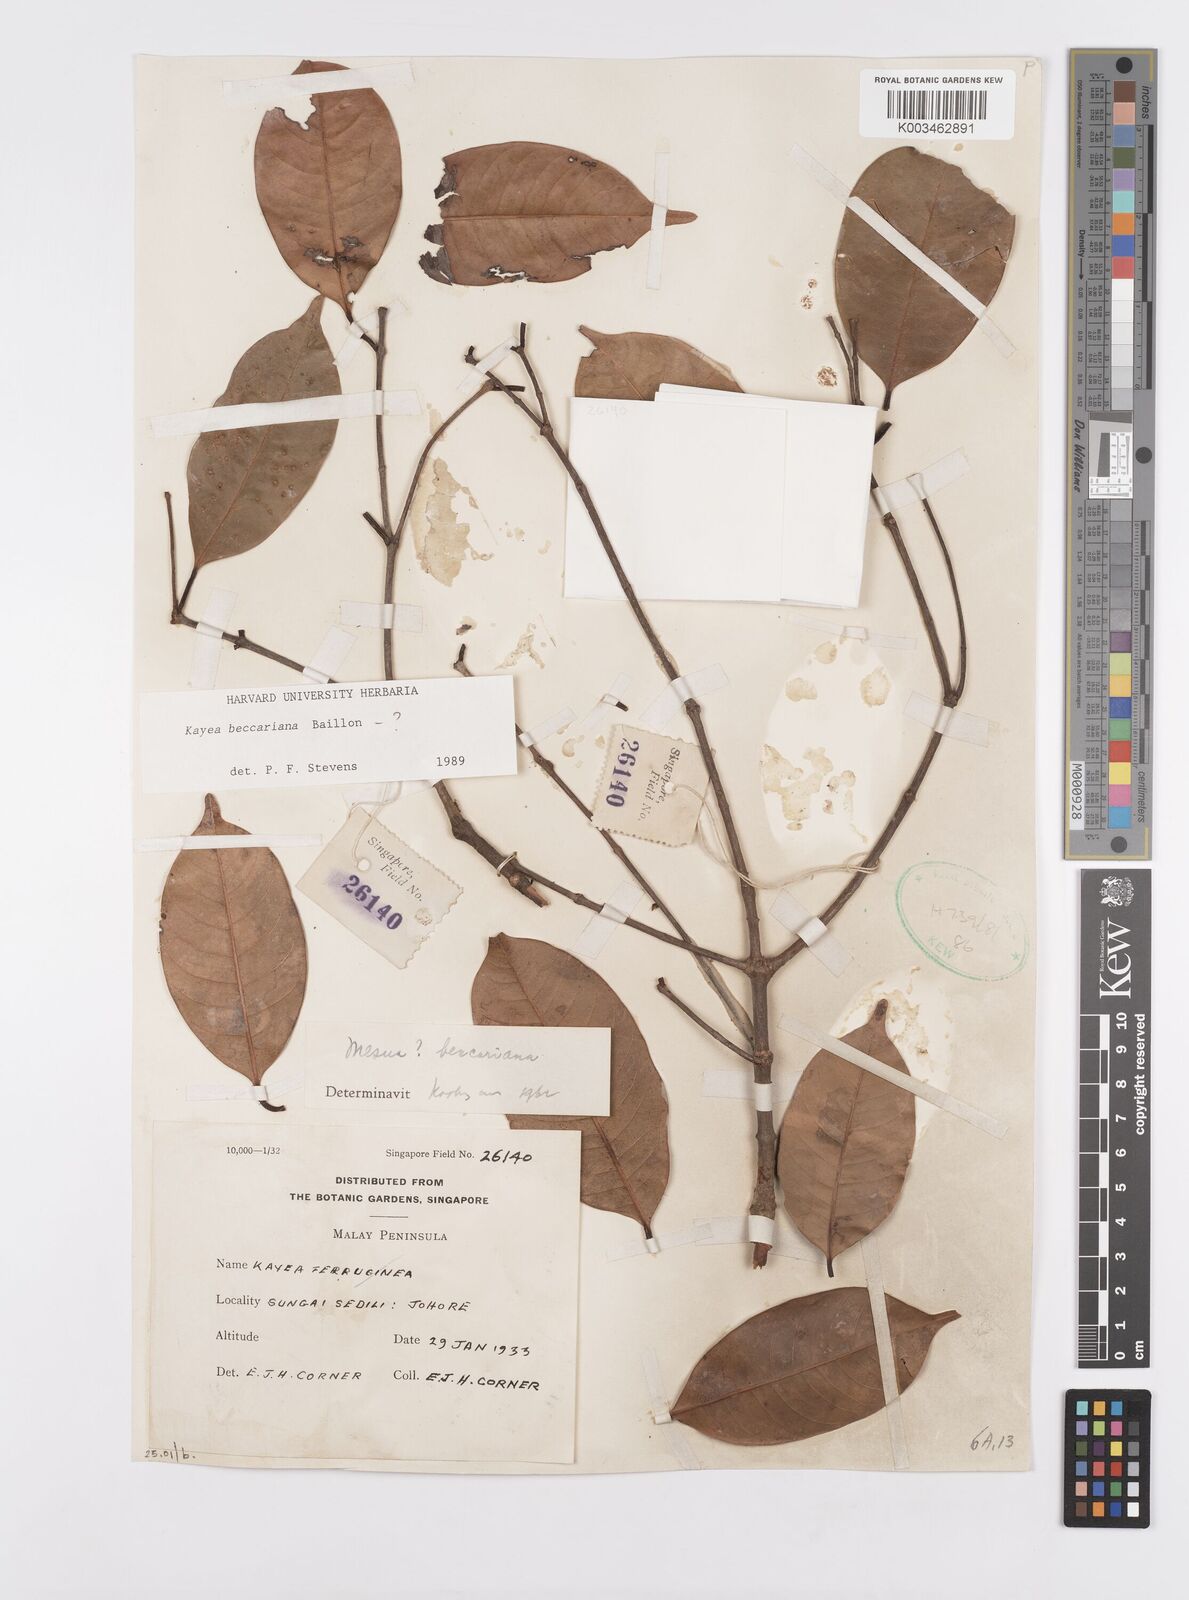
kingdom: Plantae
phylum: Tracheophyta
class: Magnoliopsida
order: Malpighiales
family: Calophyllaceae
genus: Kayea
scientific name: Kayea beccariana
